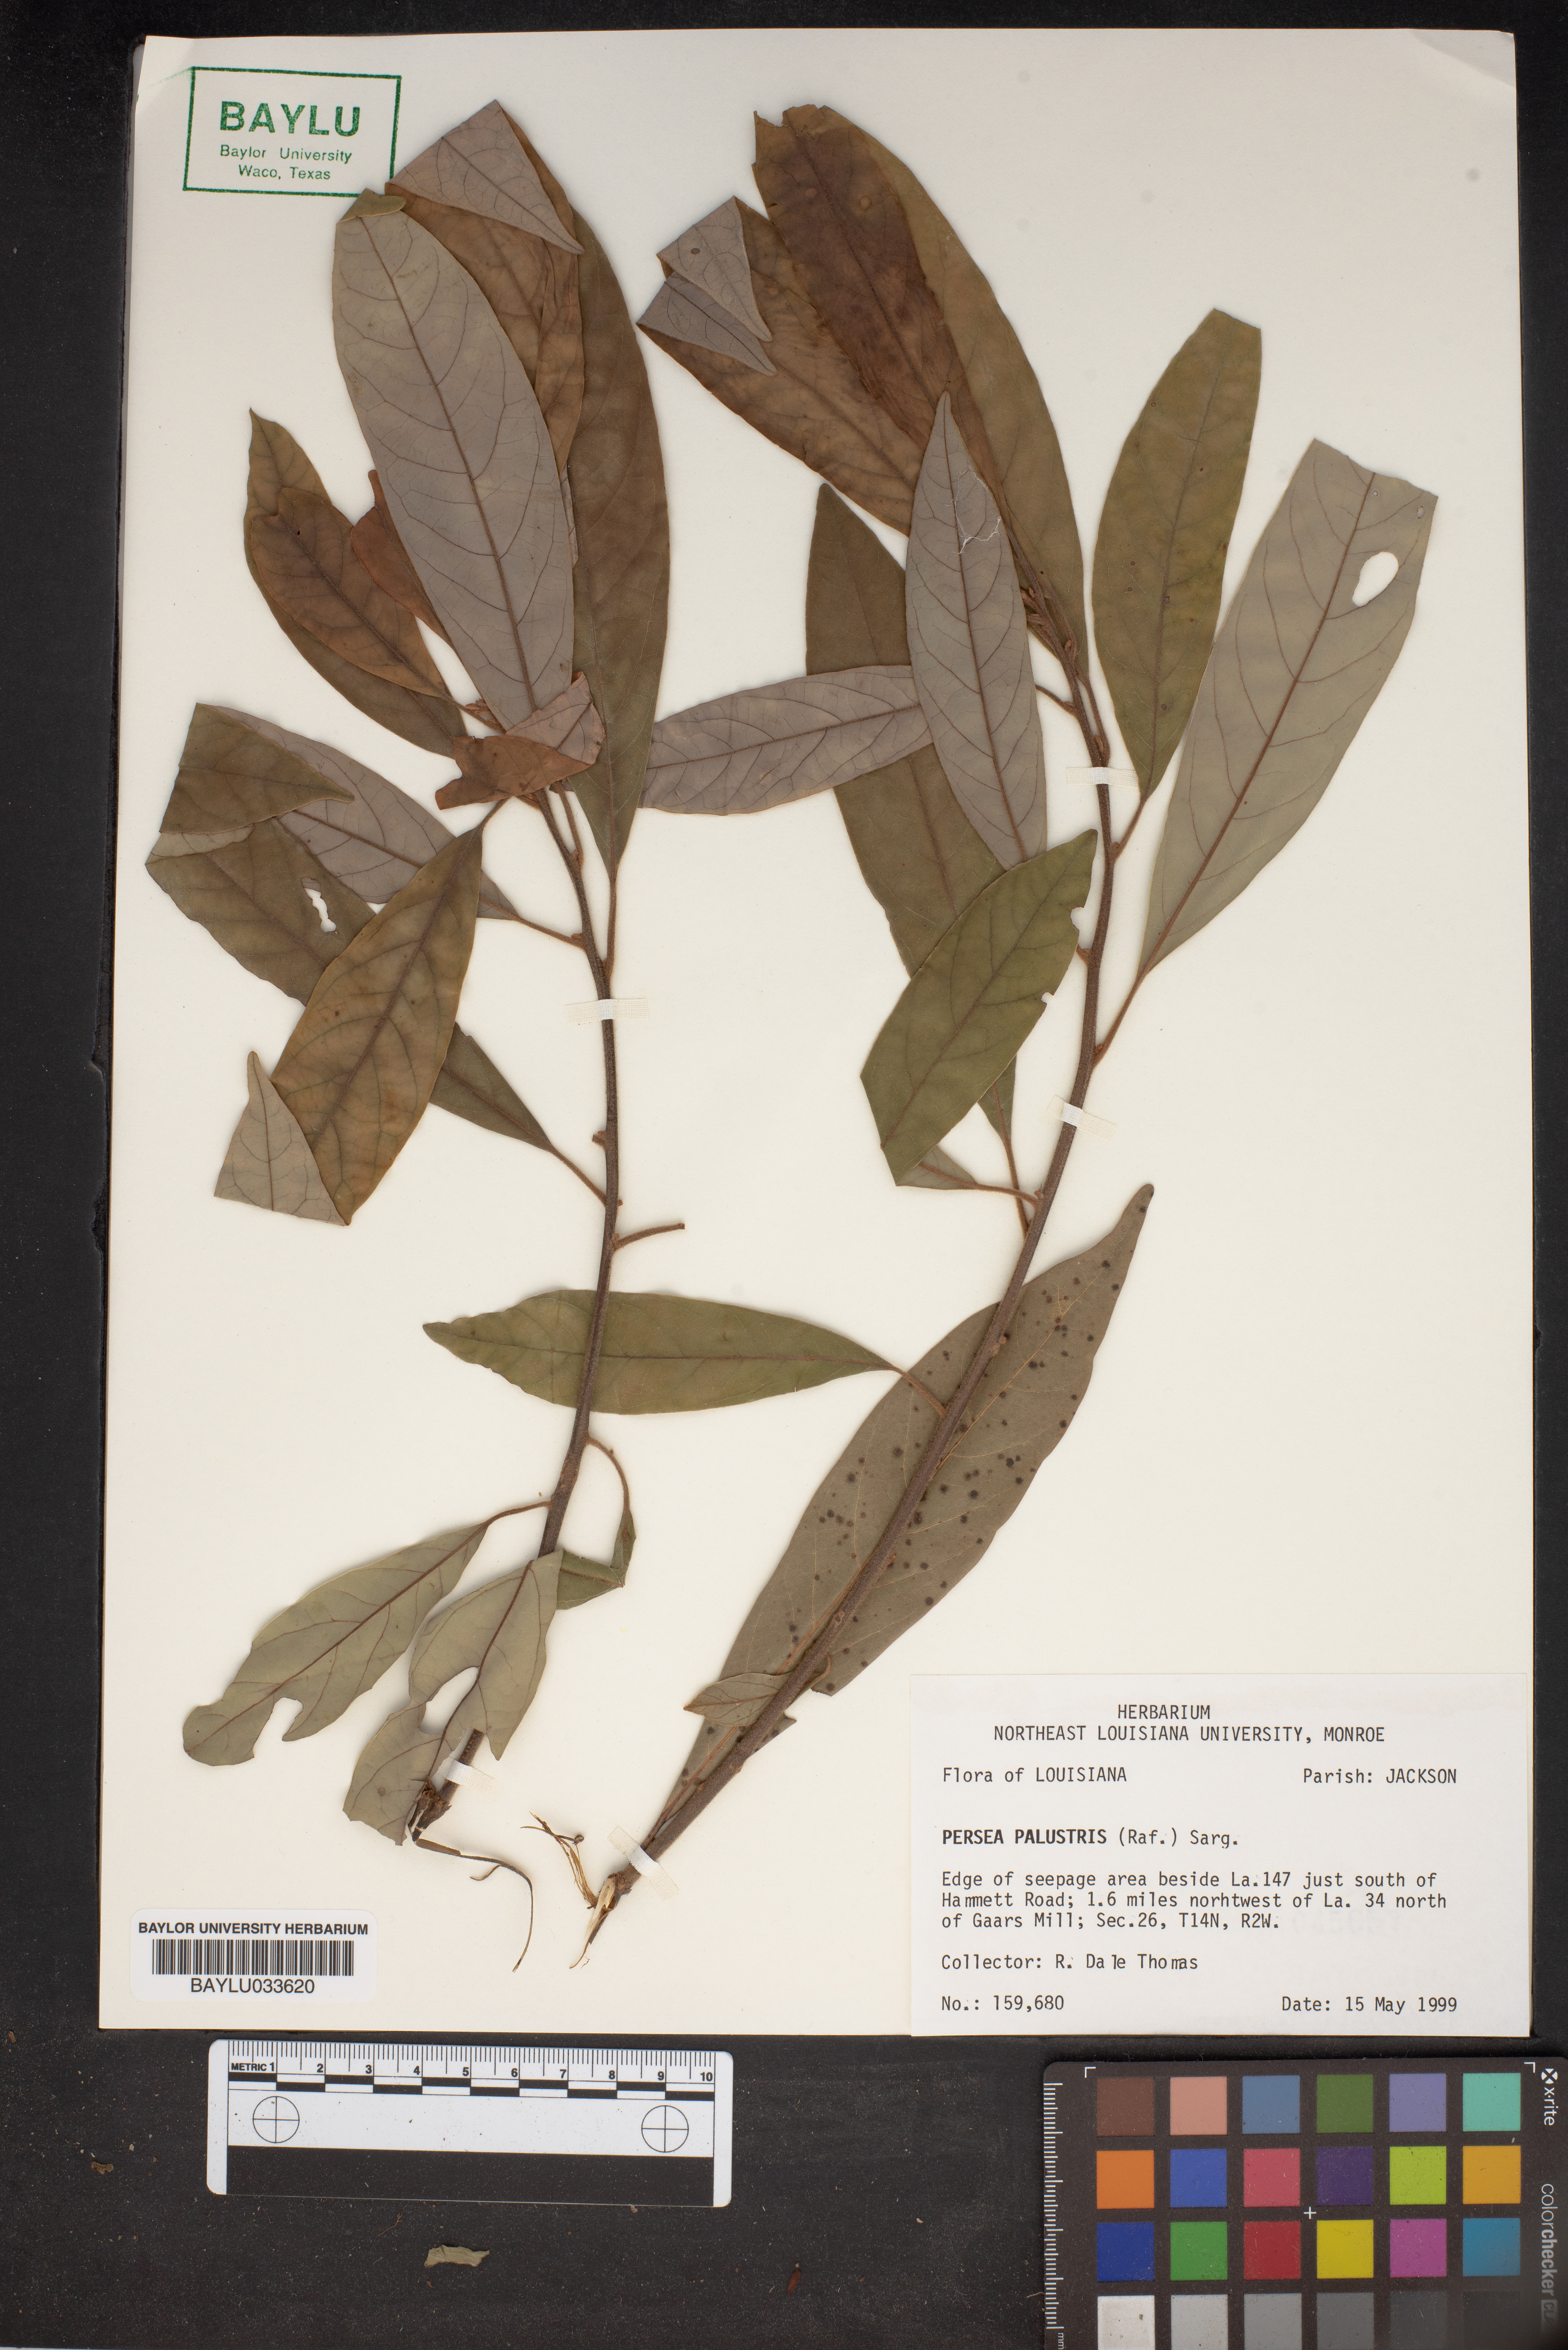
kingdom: Plantae
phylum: Tracheophyta
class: Magnoliopsida
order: Laurales
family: Lauraceae
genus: Persea
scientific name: Persea palustris
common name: Swampbay
